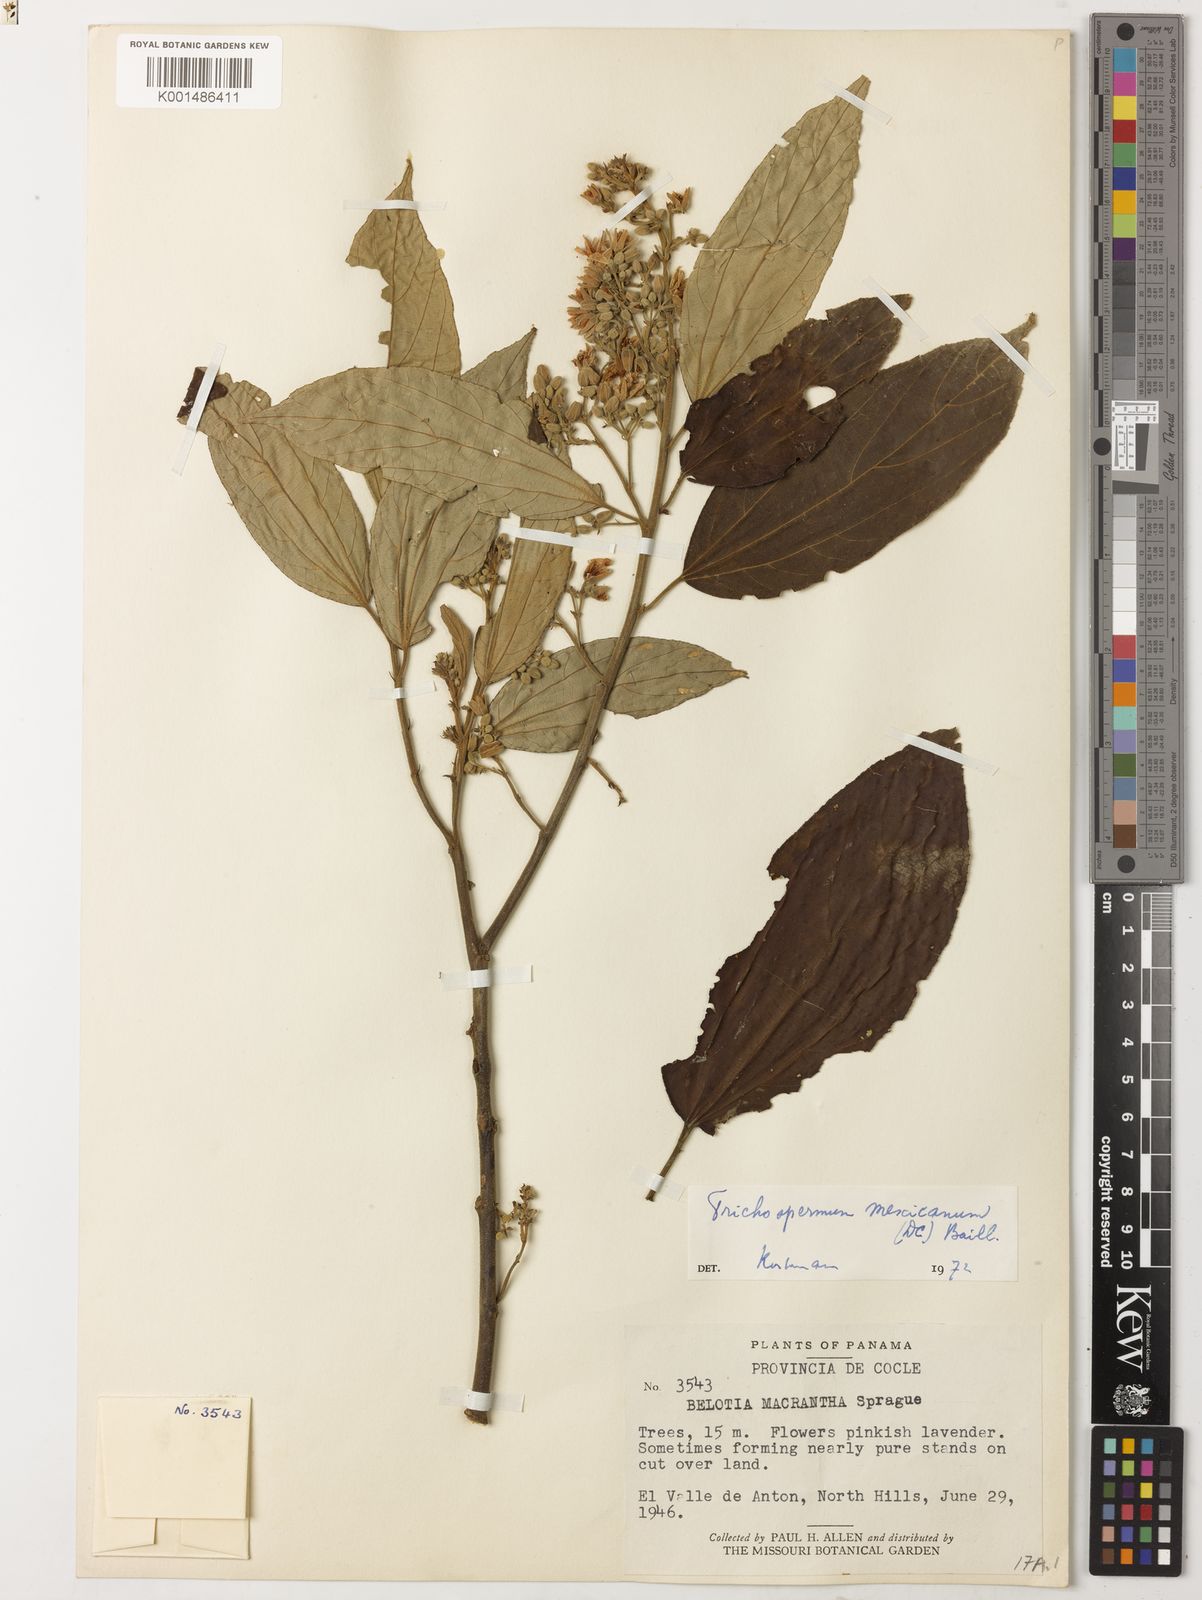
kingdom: Plantae
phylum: Tracheophyta
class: Magnoliopsida
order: Malvales
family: Malvaceae
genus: Trichospermum
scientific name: Trichospermum mexicanum
